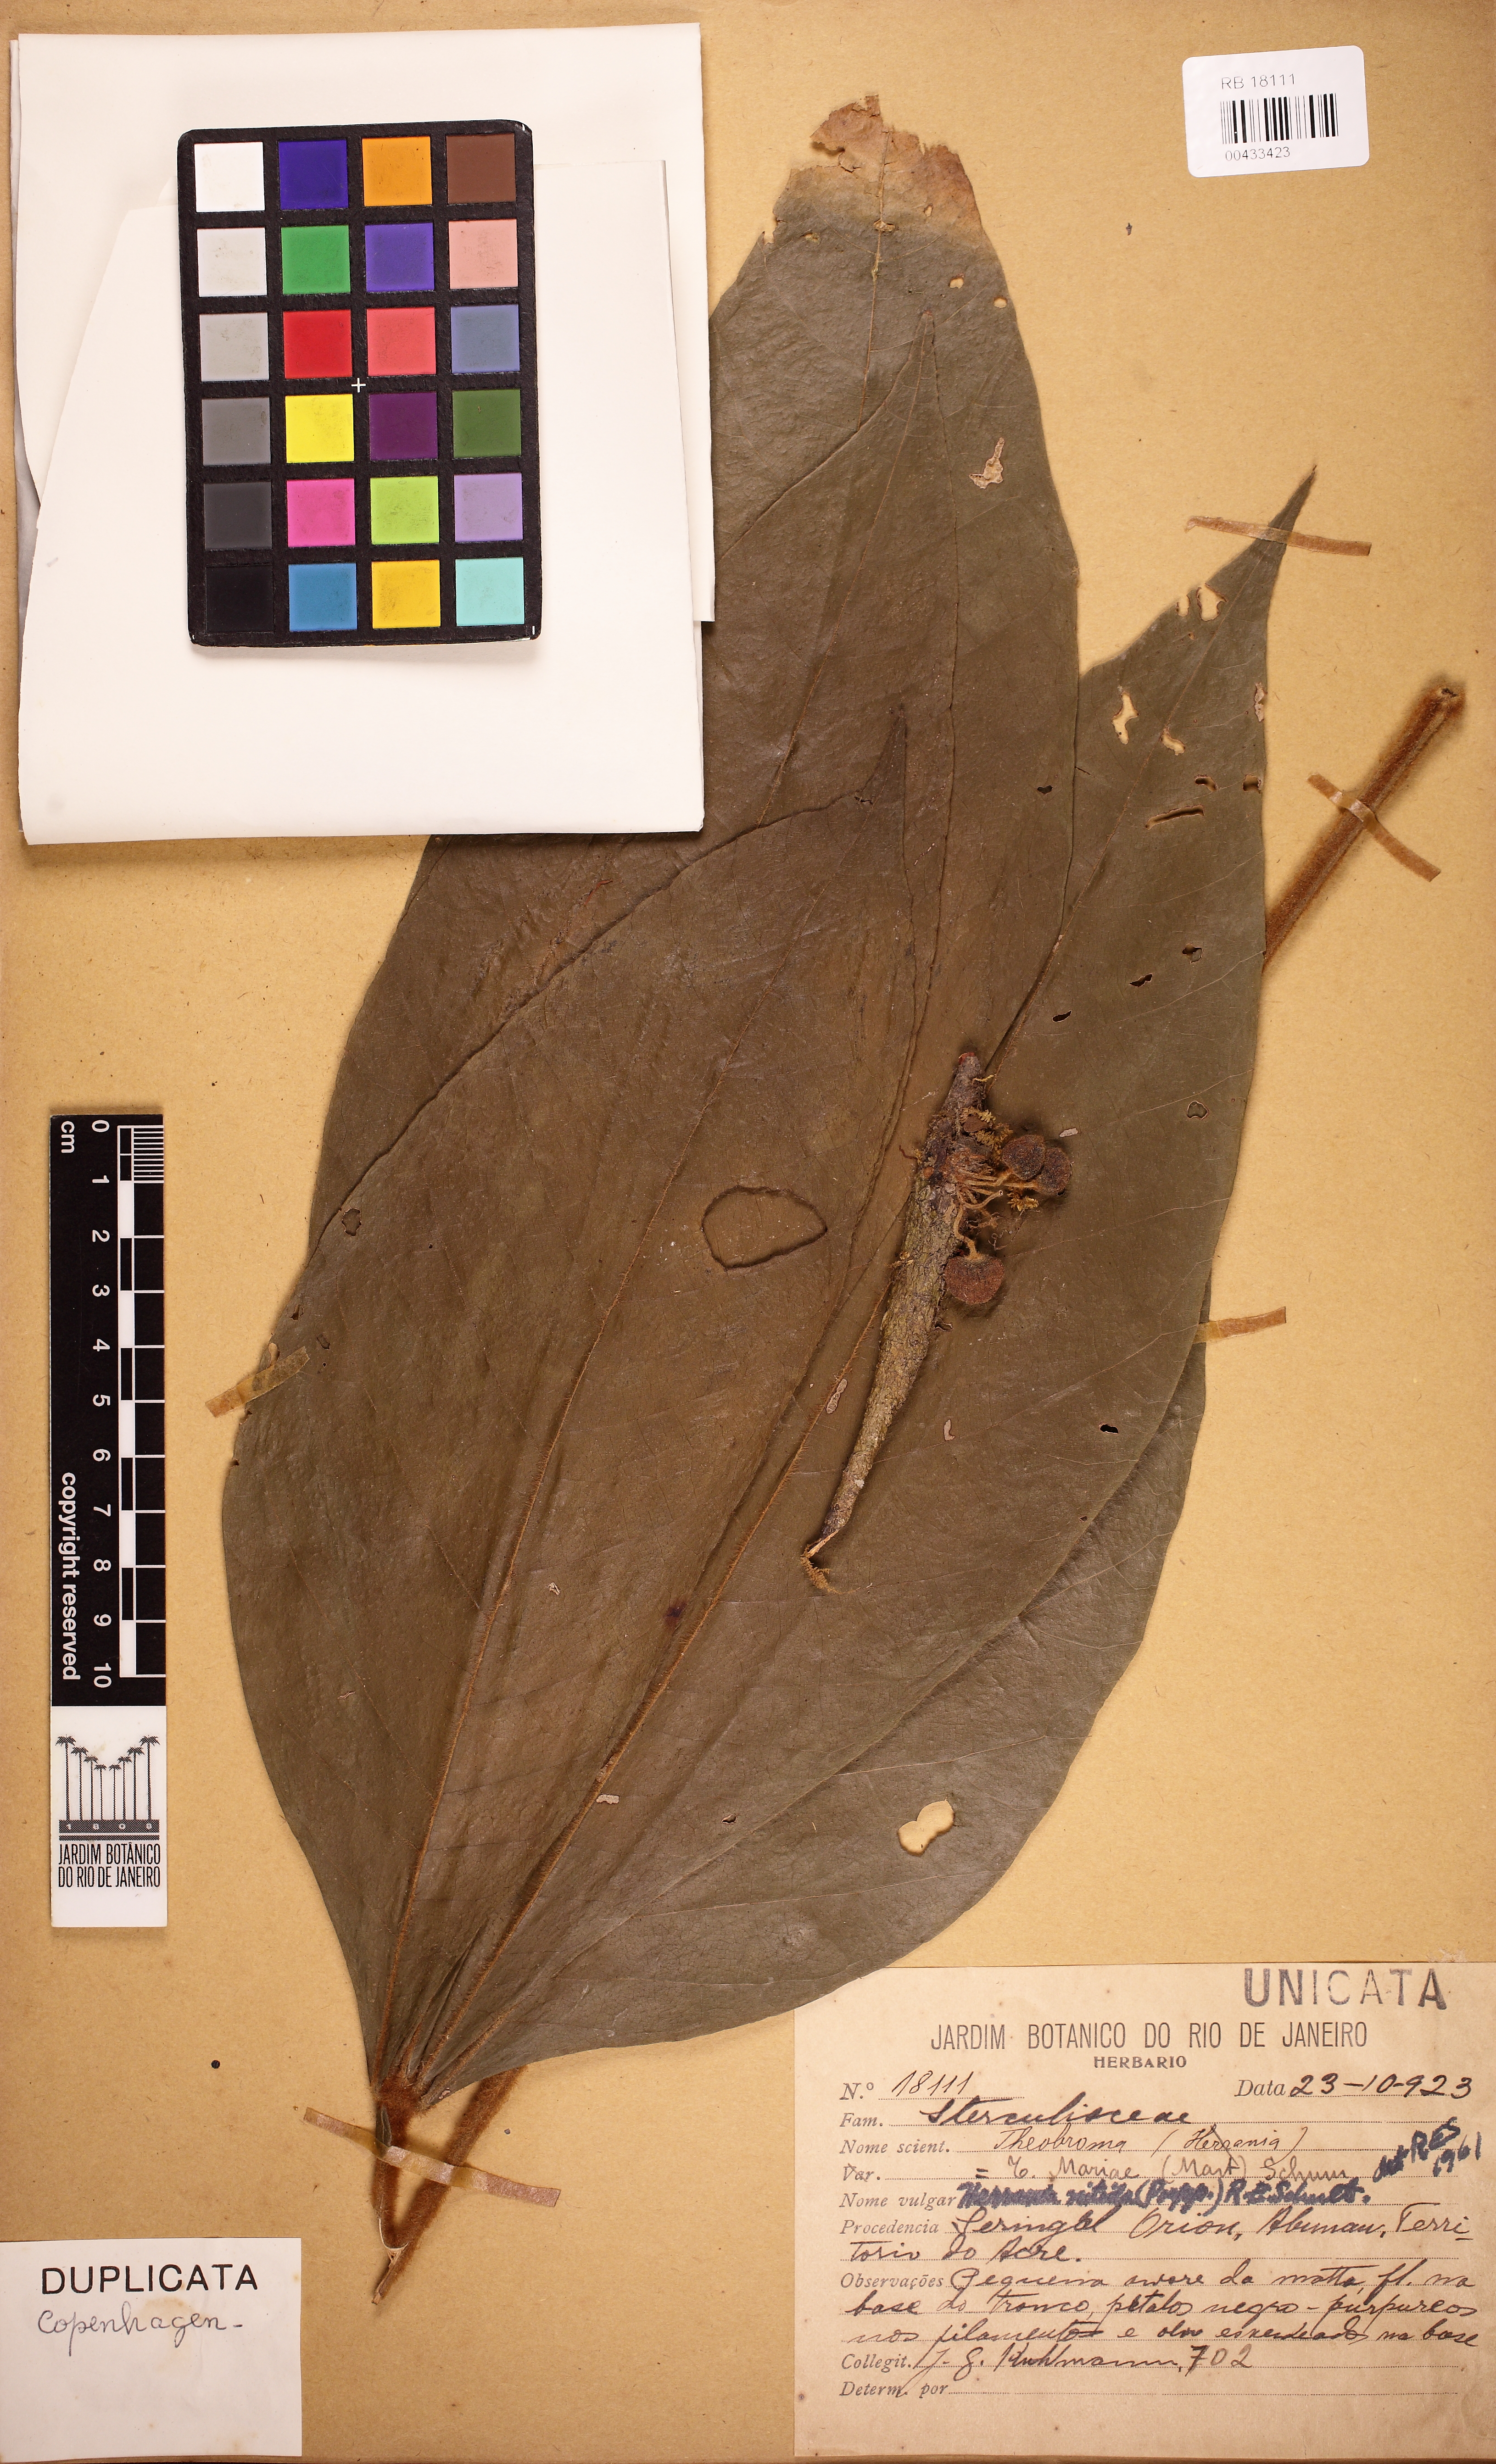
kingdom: Plantae
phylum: Tracheophyta
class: Magnoliopsida
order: Malvales
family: Malvaceae
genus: Herrania
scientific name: Herrania mariae
